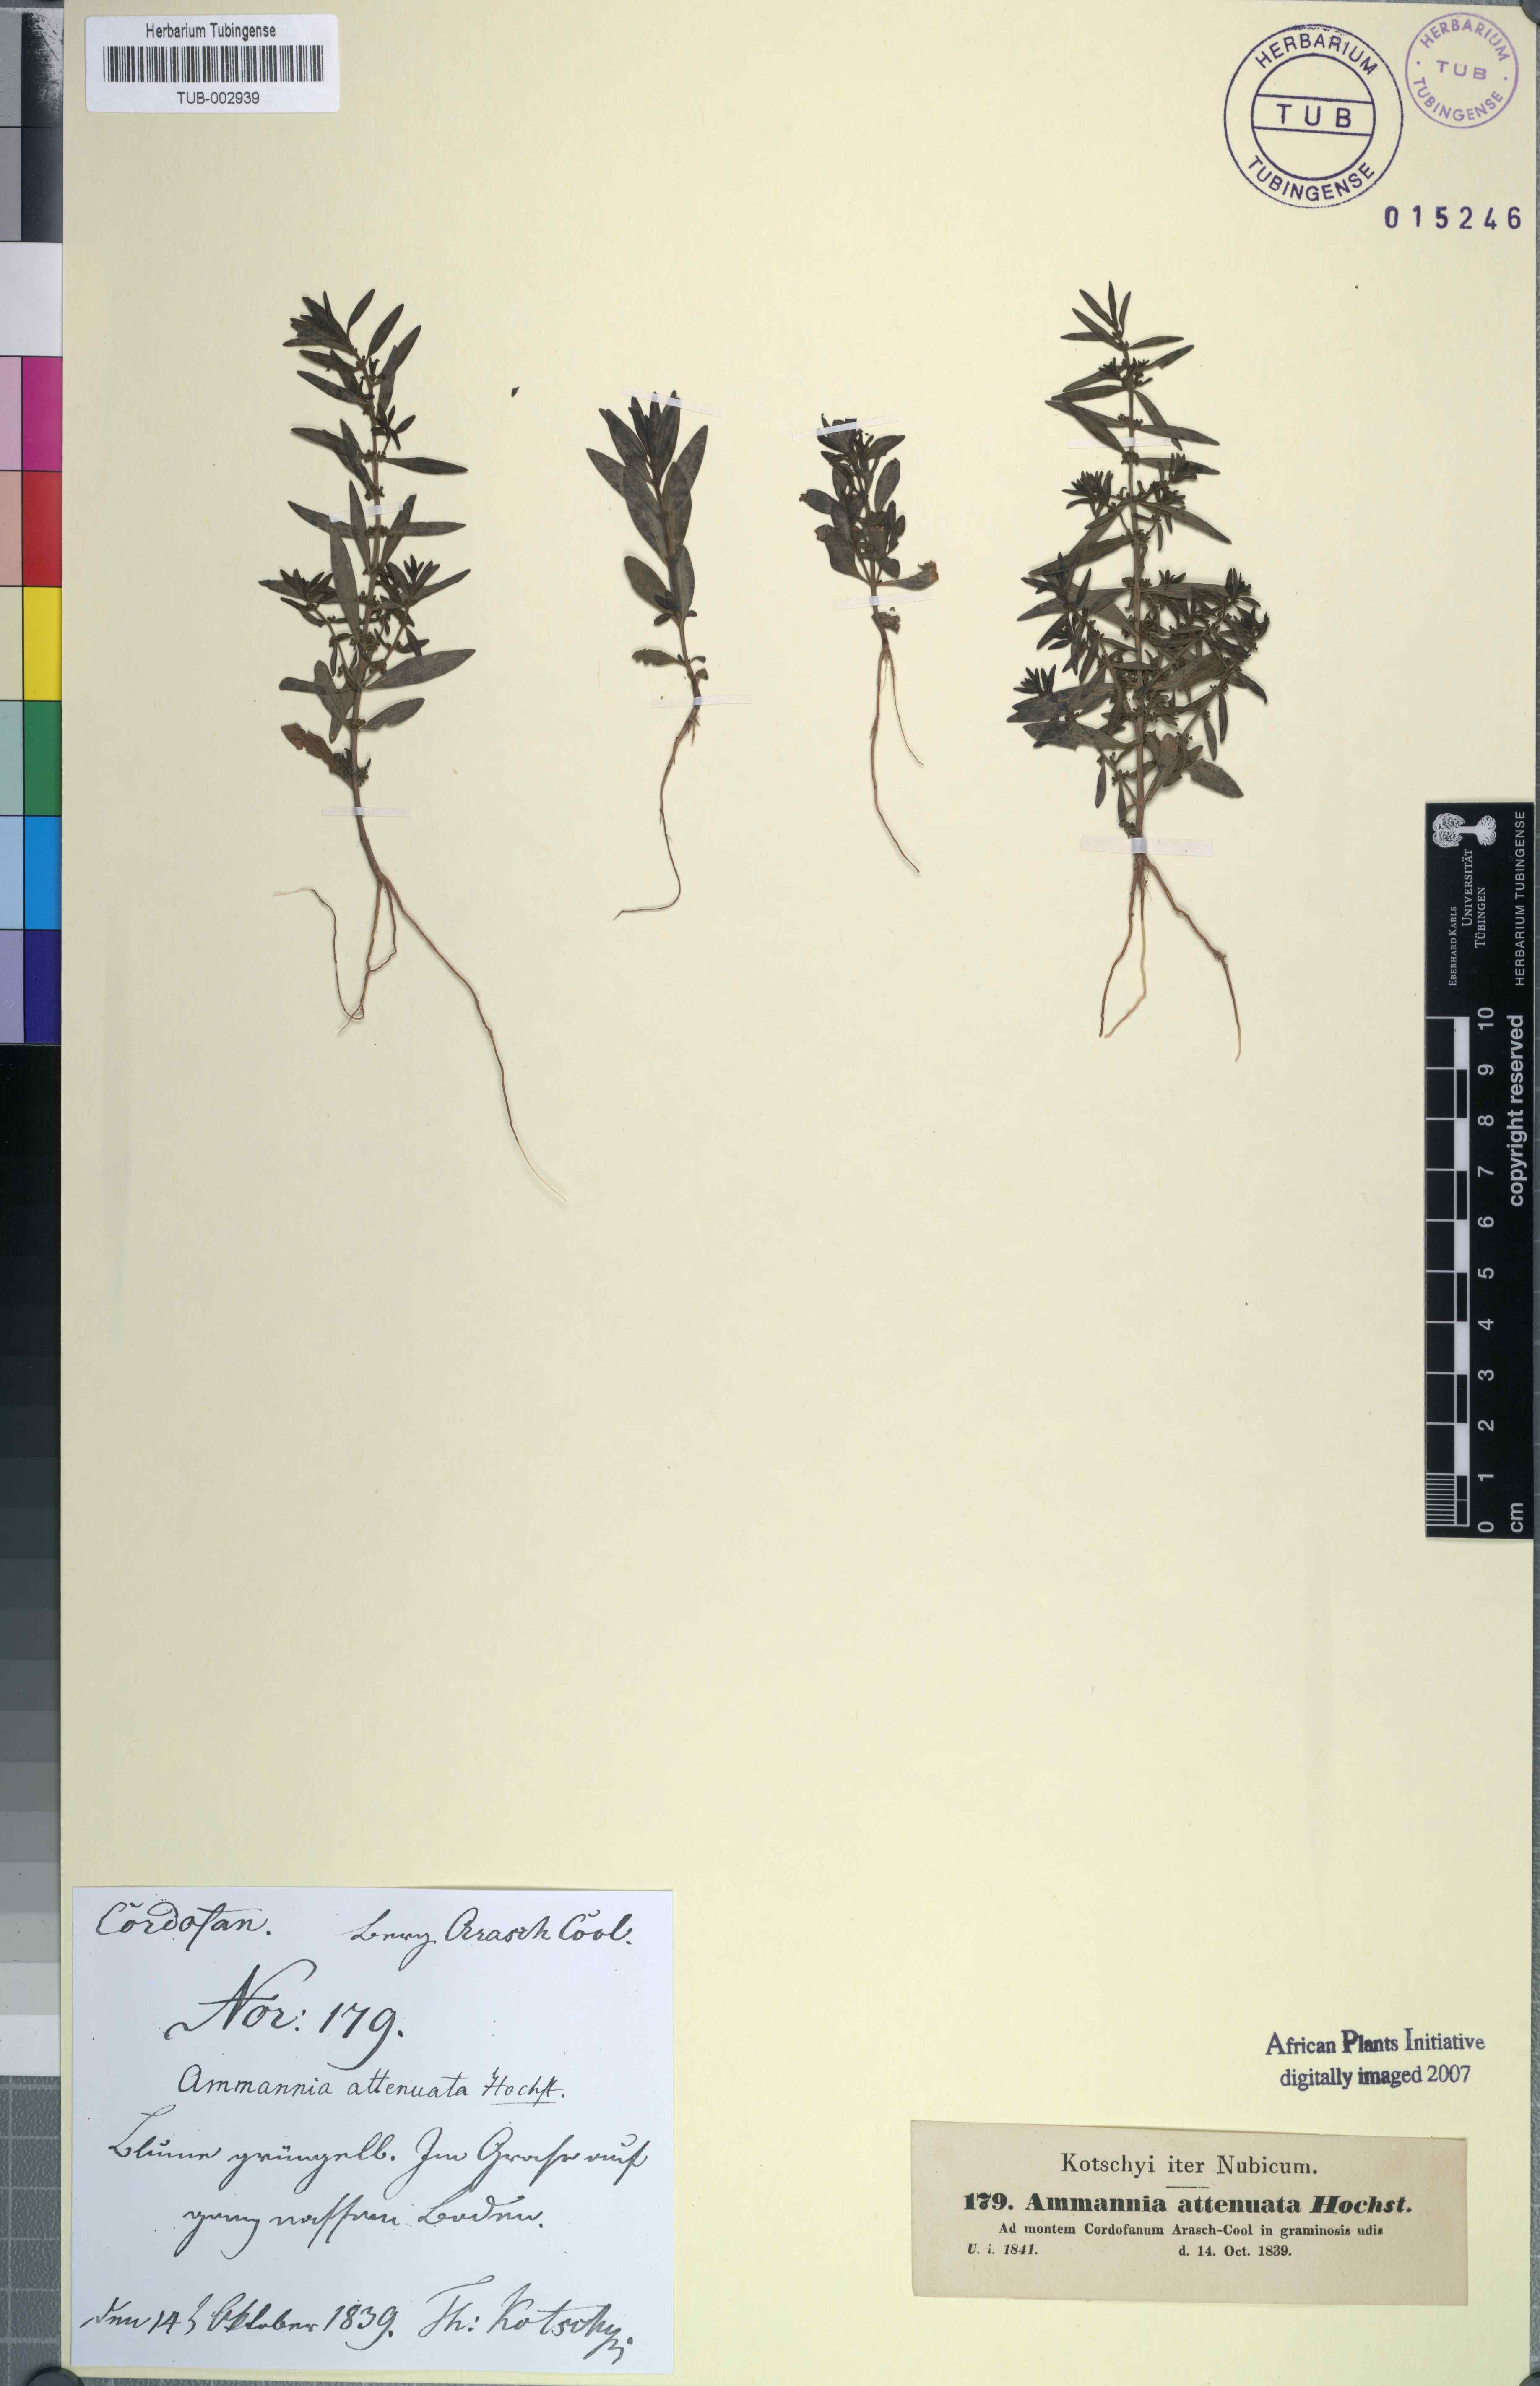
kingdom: Plantae
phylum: Tracheophyta
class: Magnoliopsida
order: Myrtales
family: Lythraceae
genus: Ammannia
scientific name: Ammannia baccifera
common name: Blistering ammania
